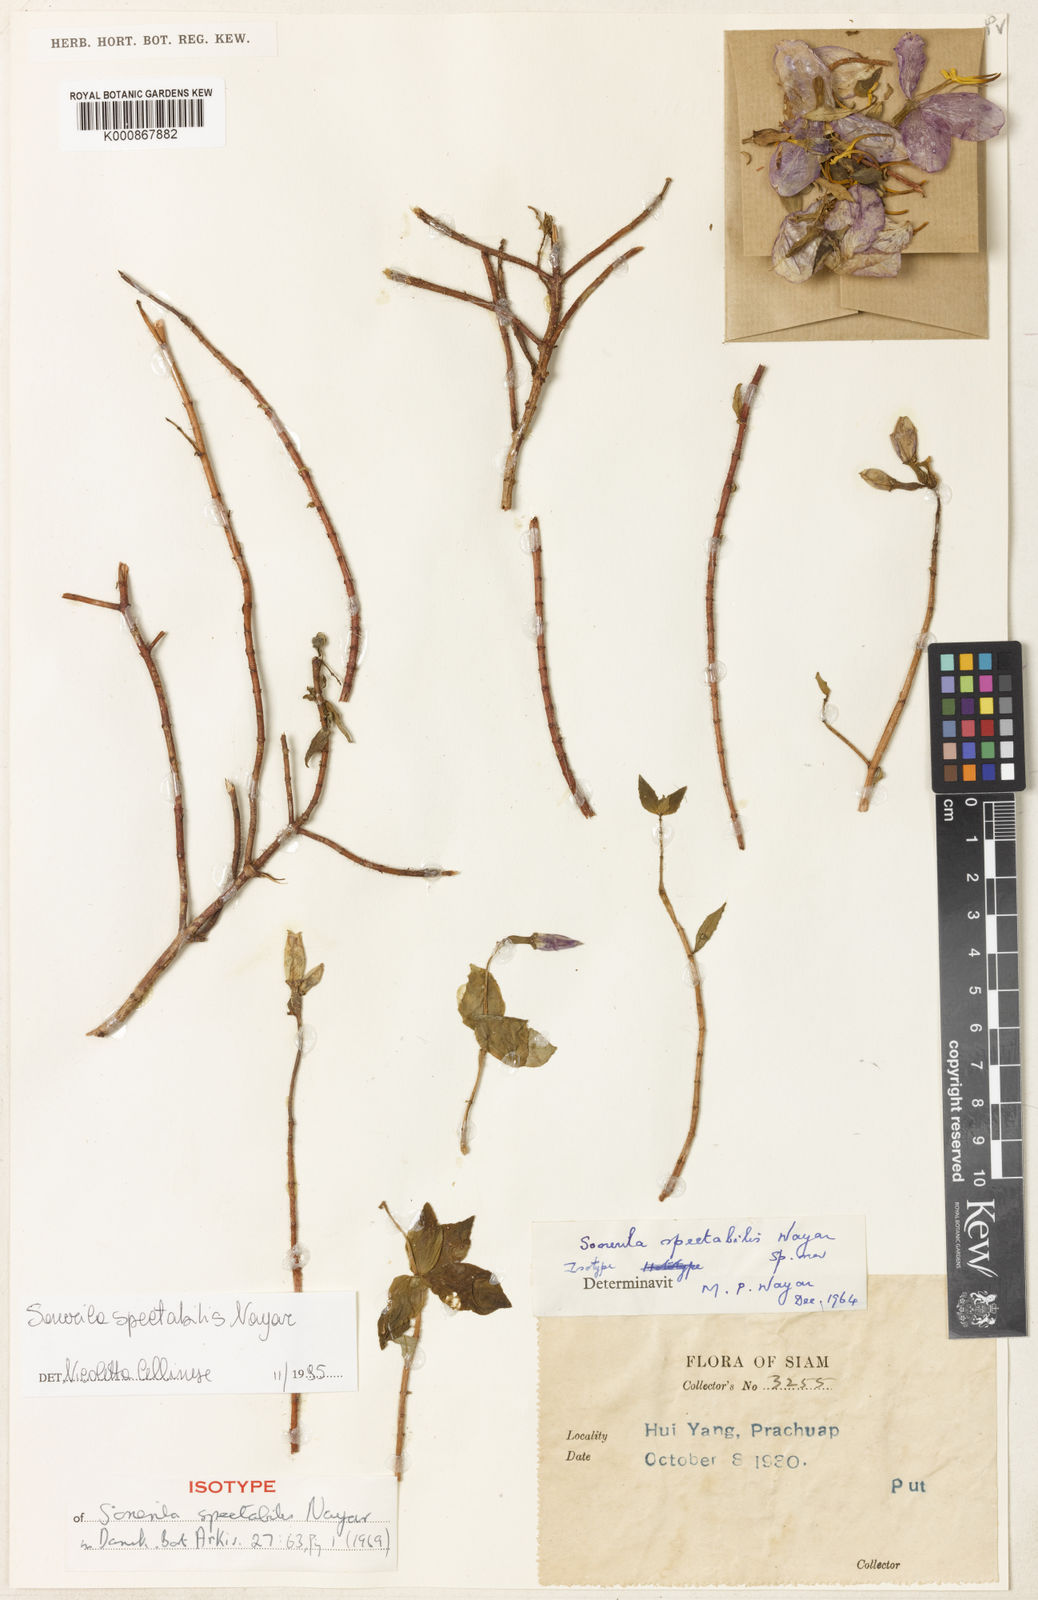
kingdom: Plantae
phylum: Tracheophyta
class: Magnoliopsida
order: Myrtales
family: Melastomataceae
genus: Sonerila
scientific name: Sonerila spectabilis
